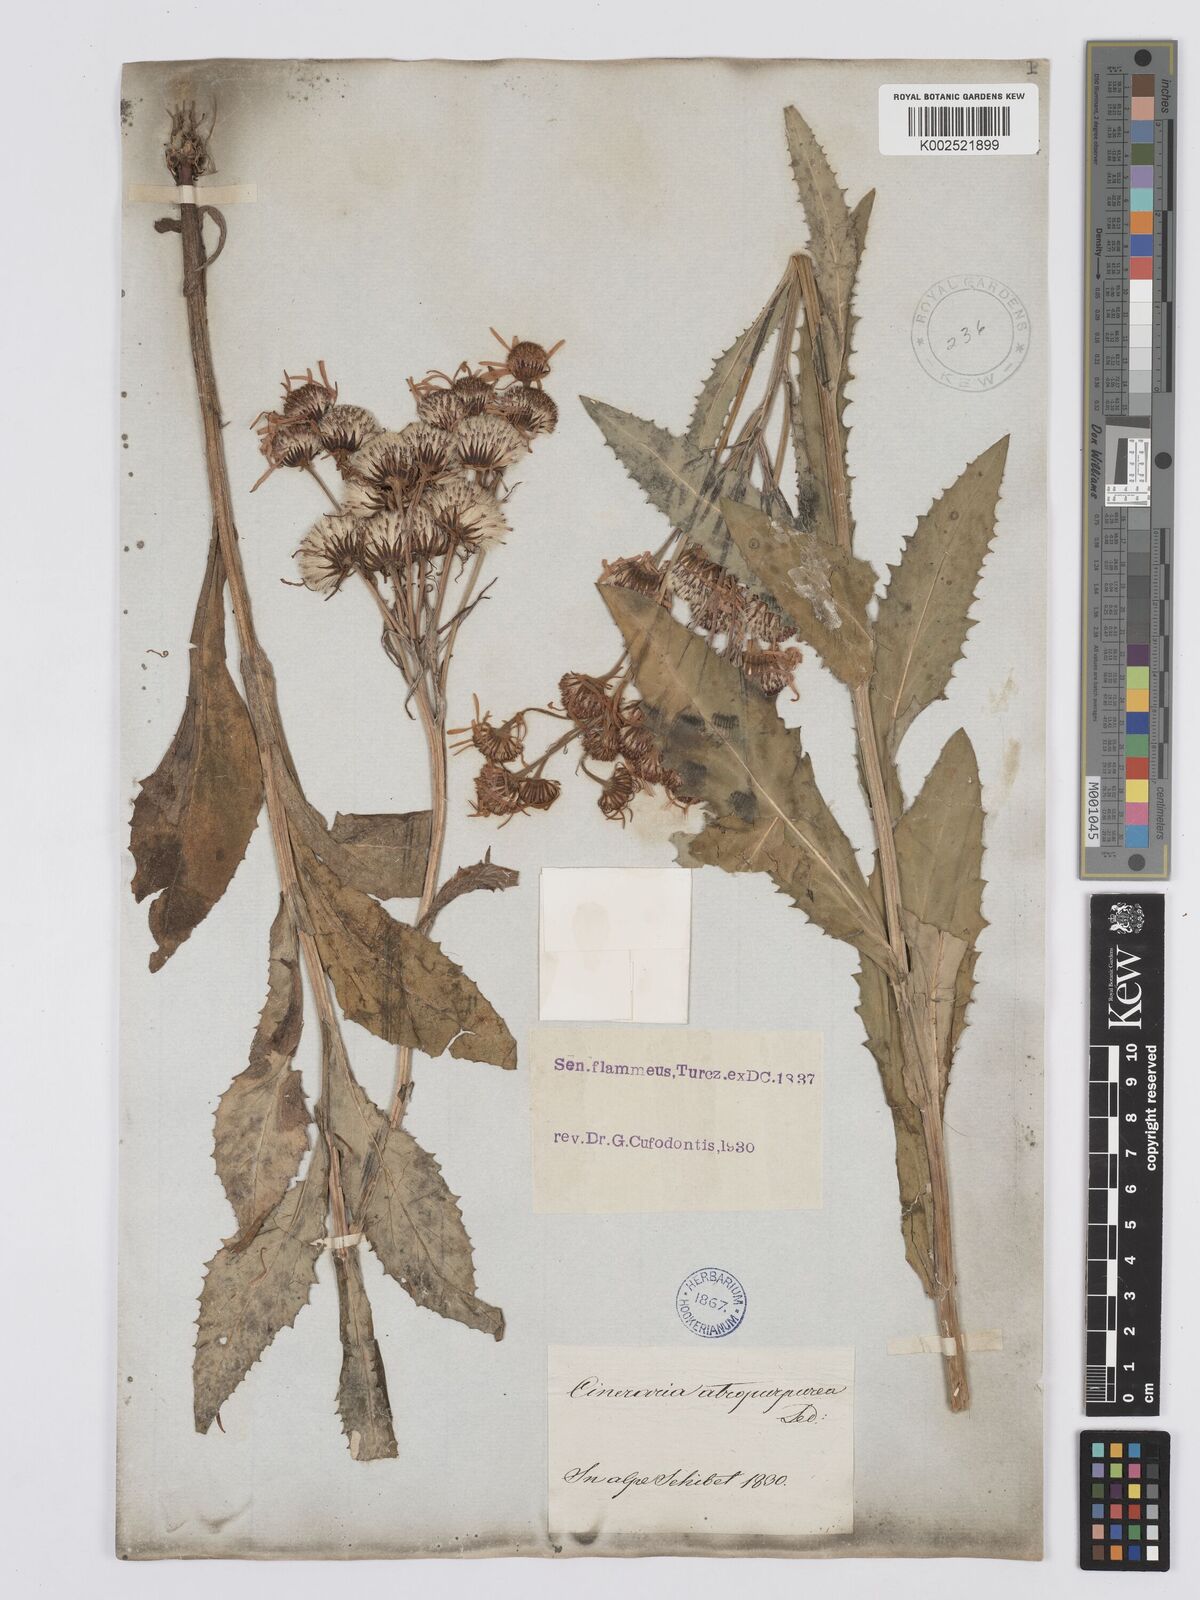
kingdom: Plantae
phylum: Tracheophyta
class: Magnoliopsida
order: Asterales
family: Asteraceae
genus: Tephroseris
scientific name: Tephroseris flammea
